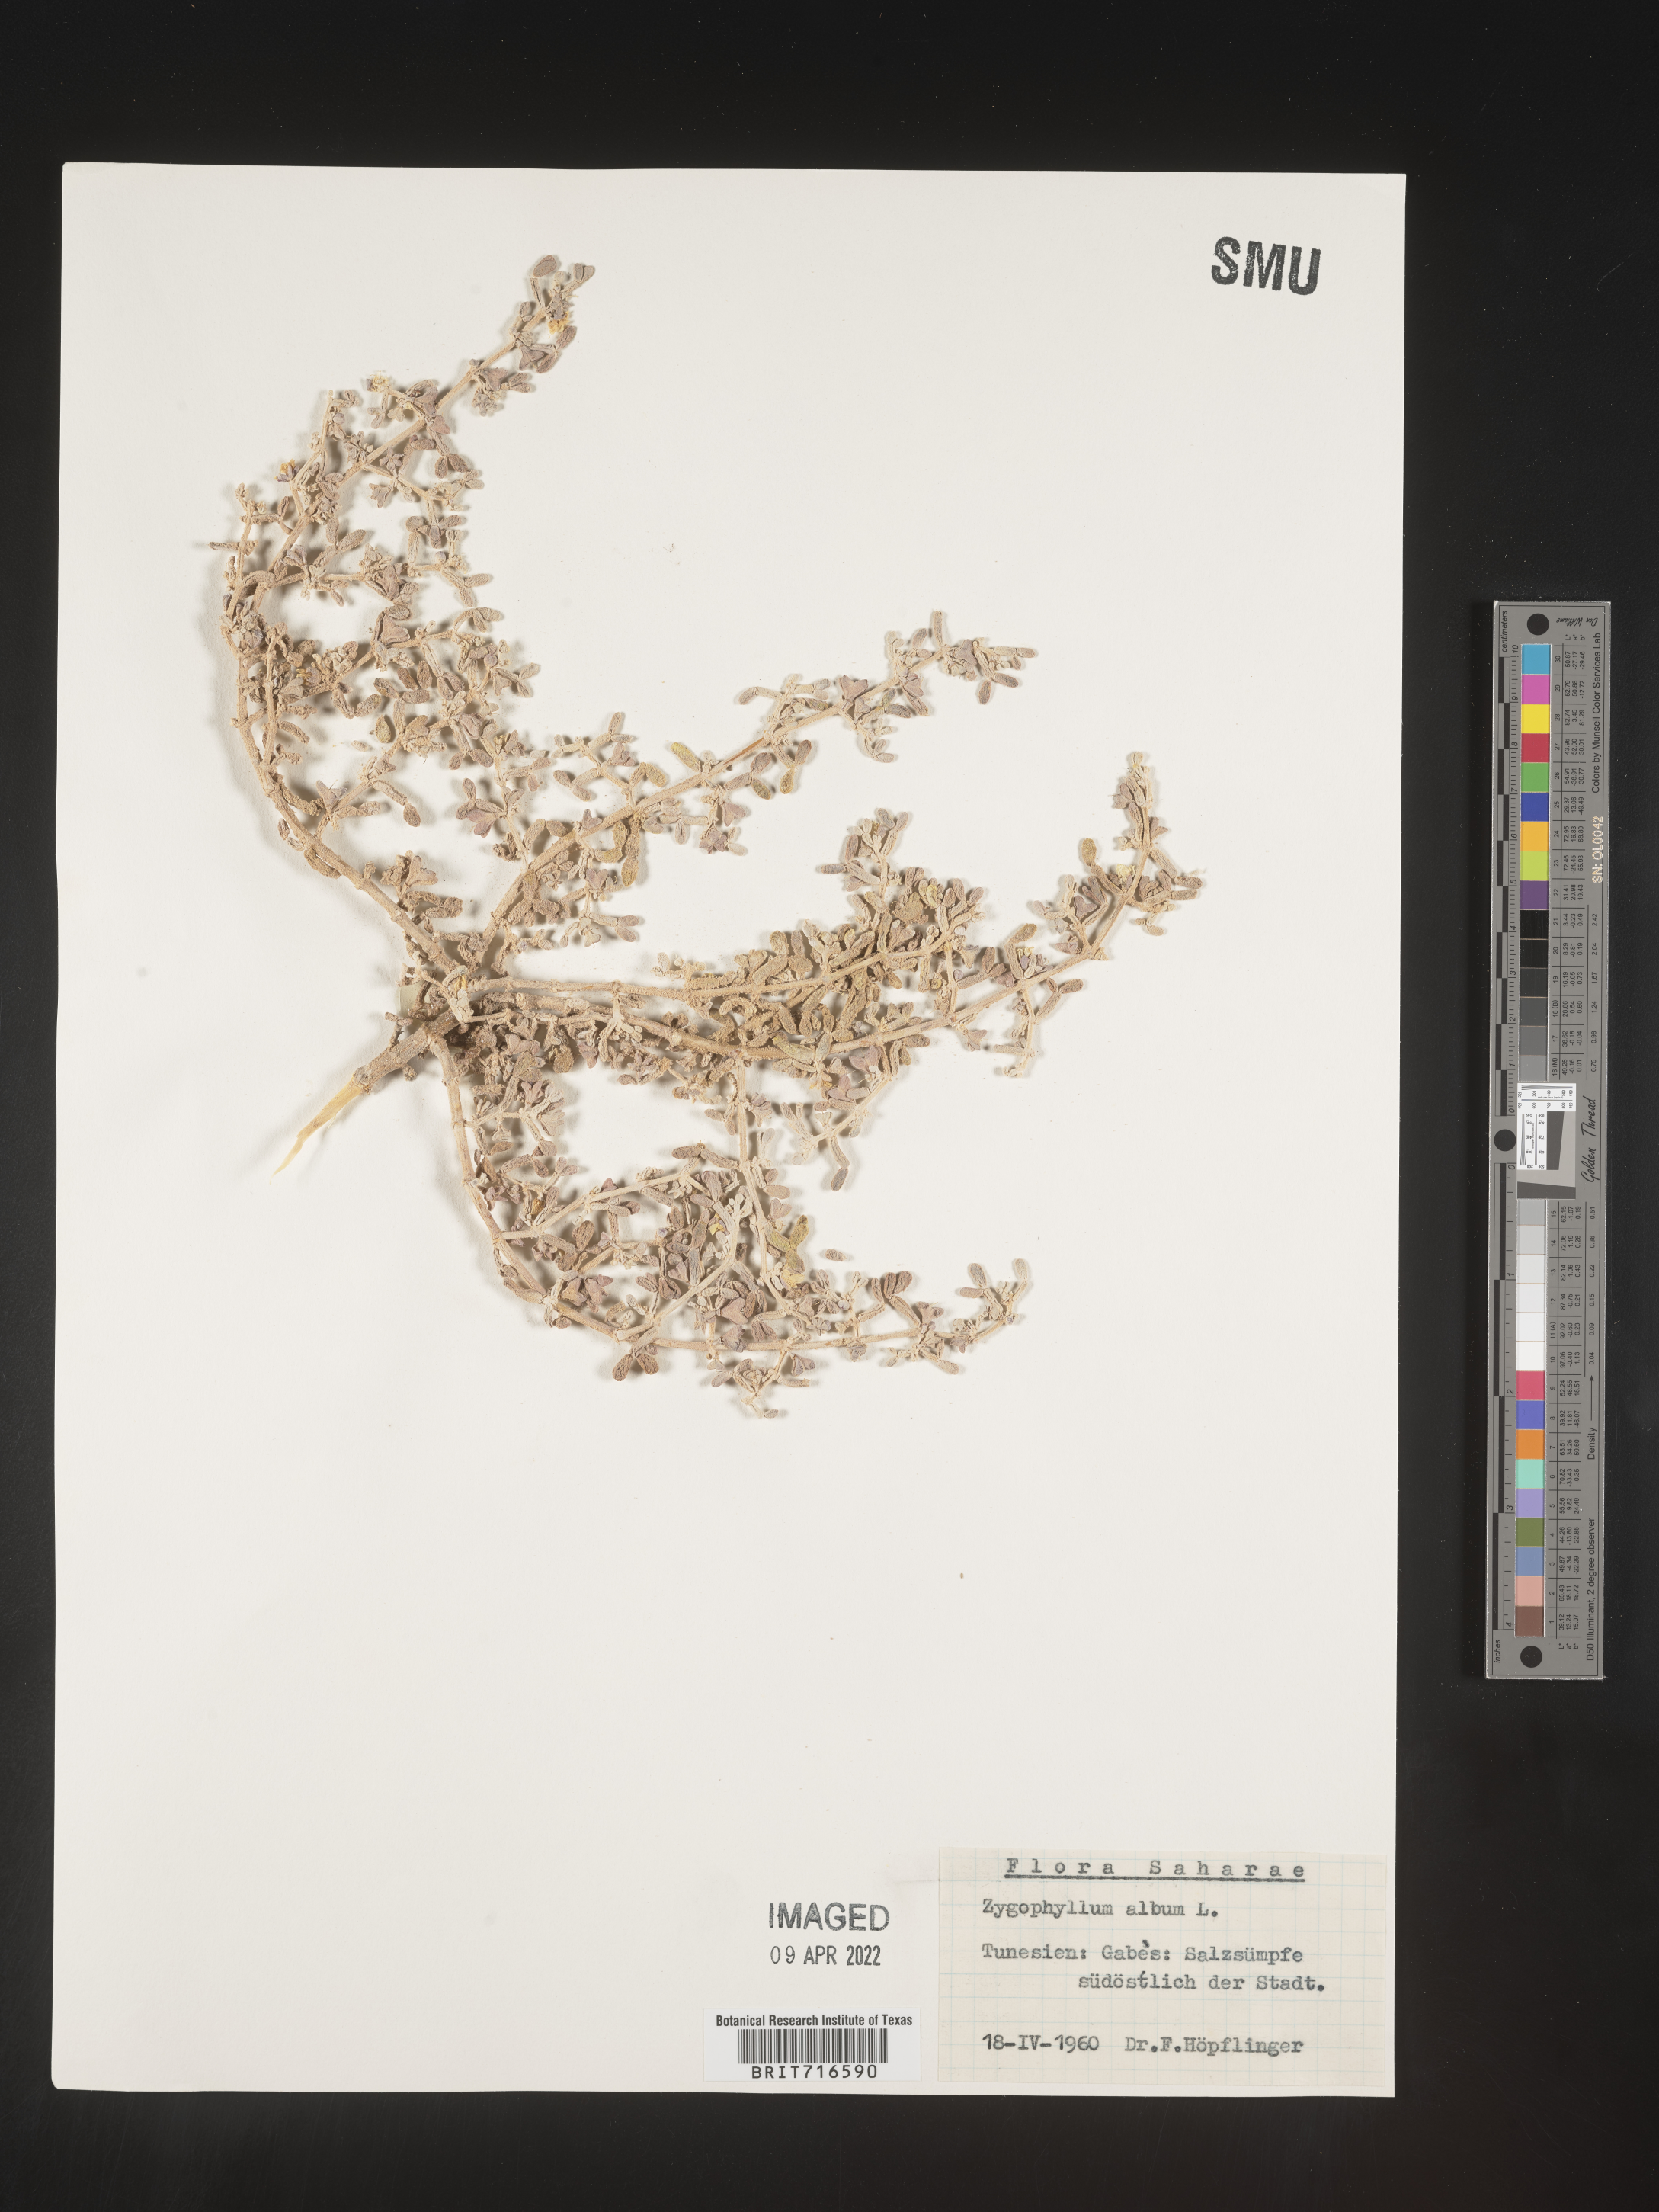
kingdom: Plantae
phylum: Tracheophyta
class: Magnoliopsida
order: Zygophyllales
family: Zygophyllaceae
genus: Zygophyllum
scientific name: Zygophyllum
